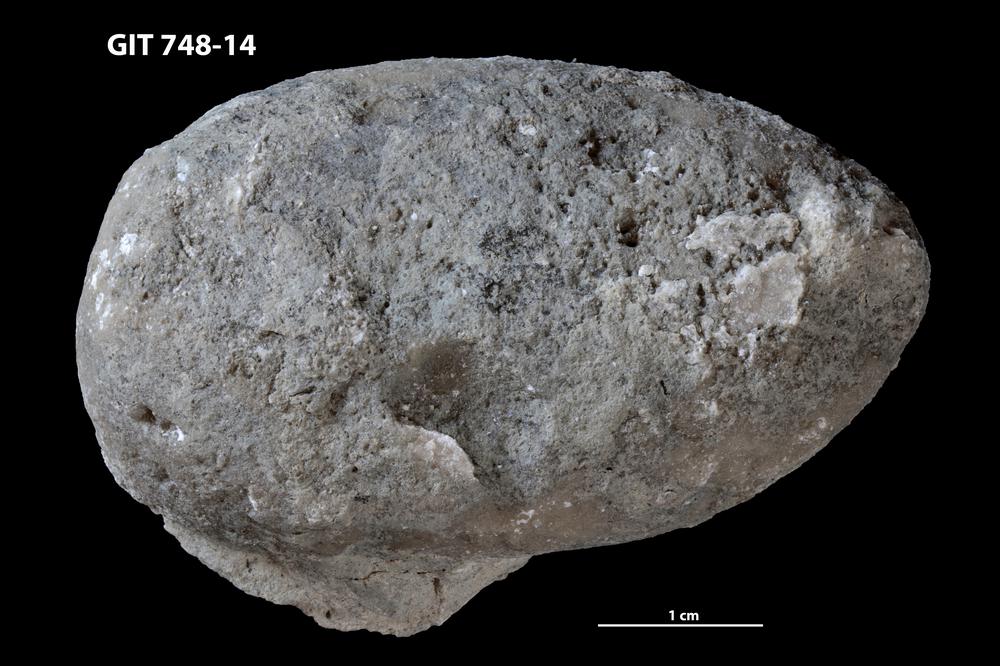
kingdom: Animalia
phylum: Porifera
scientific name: Porifera
